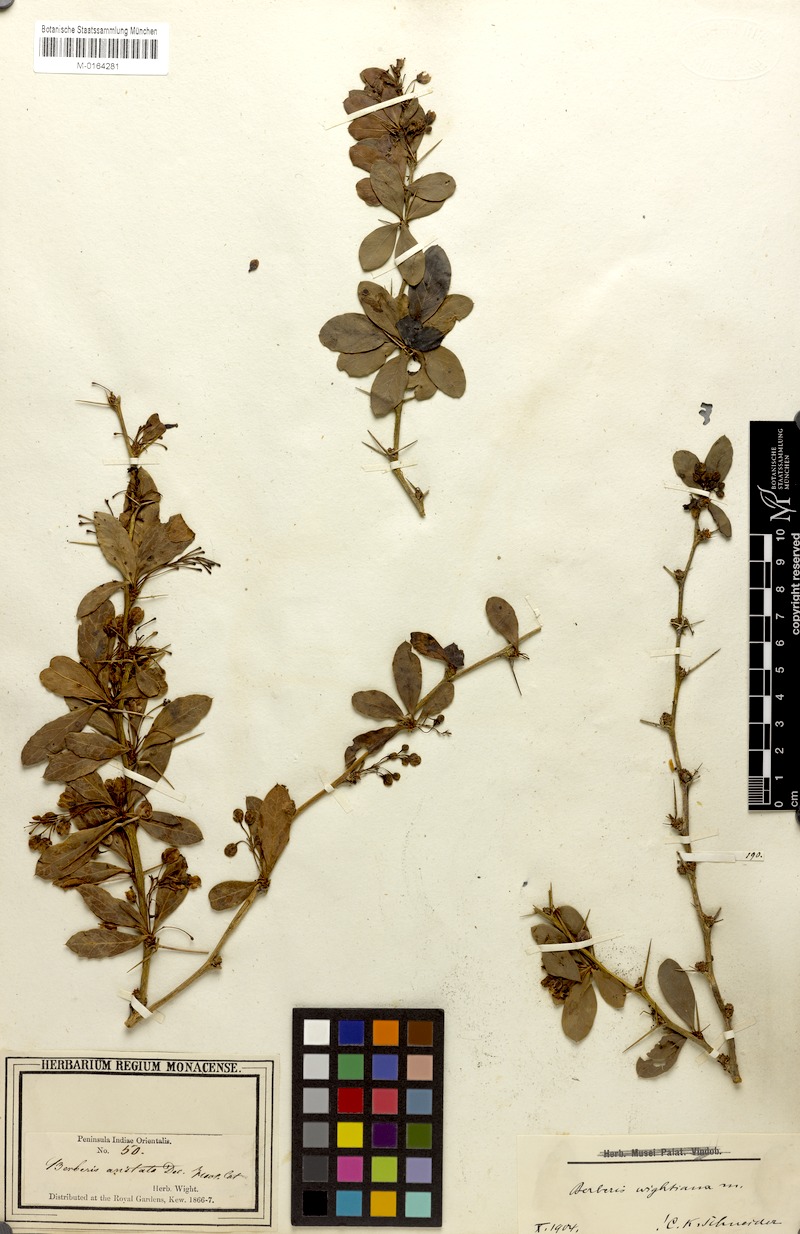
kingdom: Plantae
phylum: Tracheophyta
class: Magnoliopsida
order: Ranunculales
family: Berberidaceae
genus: Berberis
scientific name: Berberis wightiana
